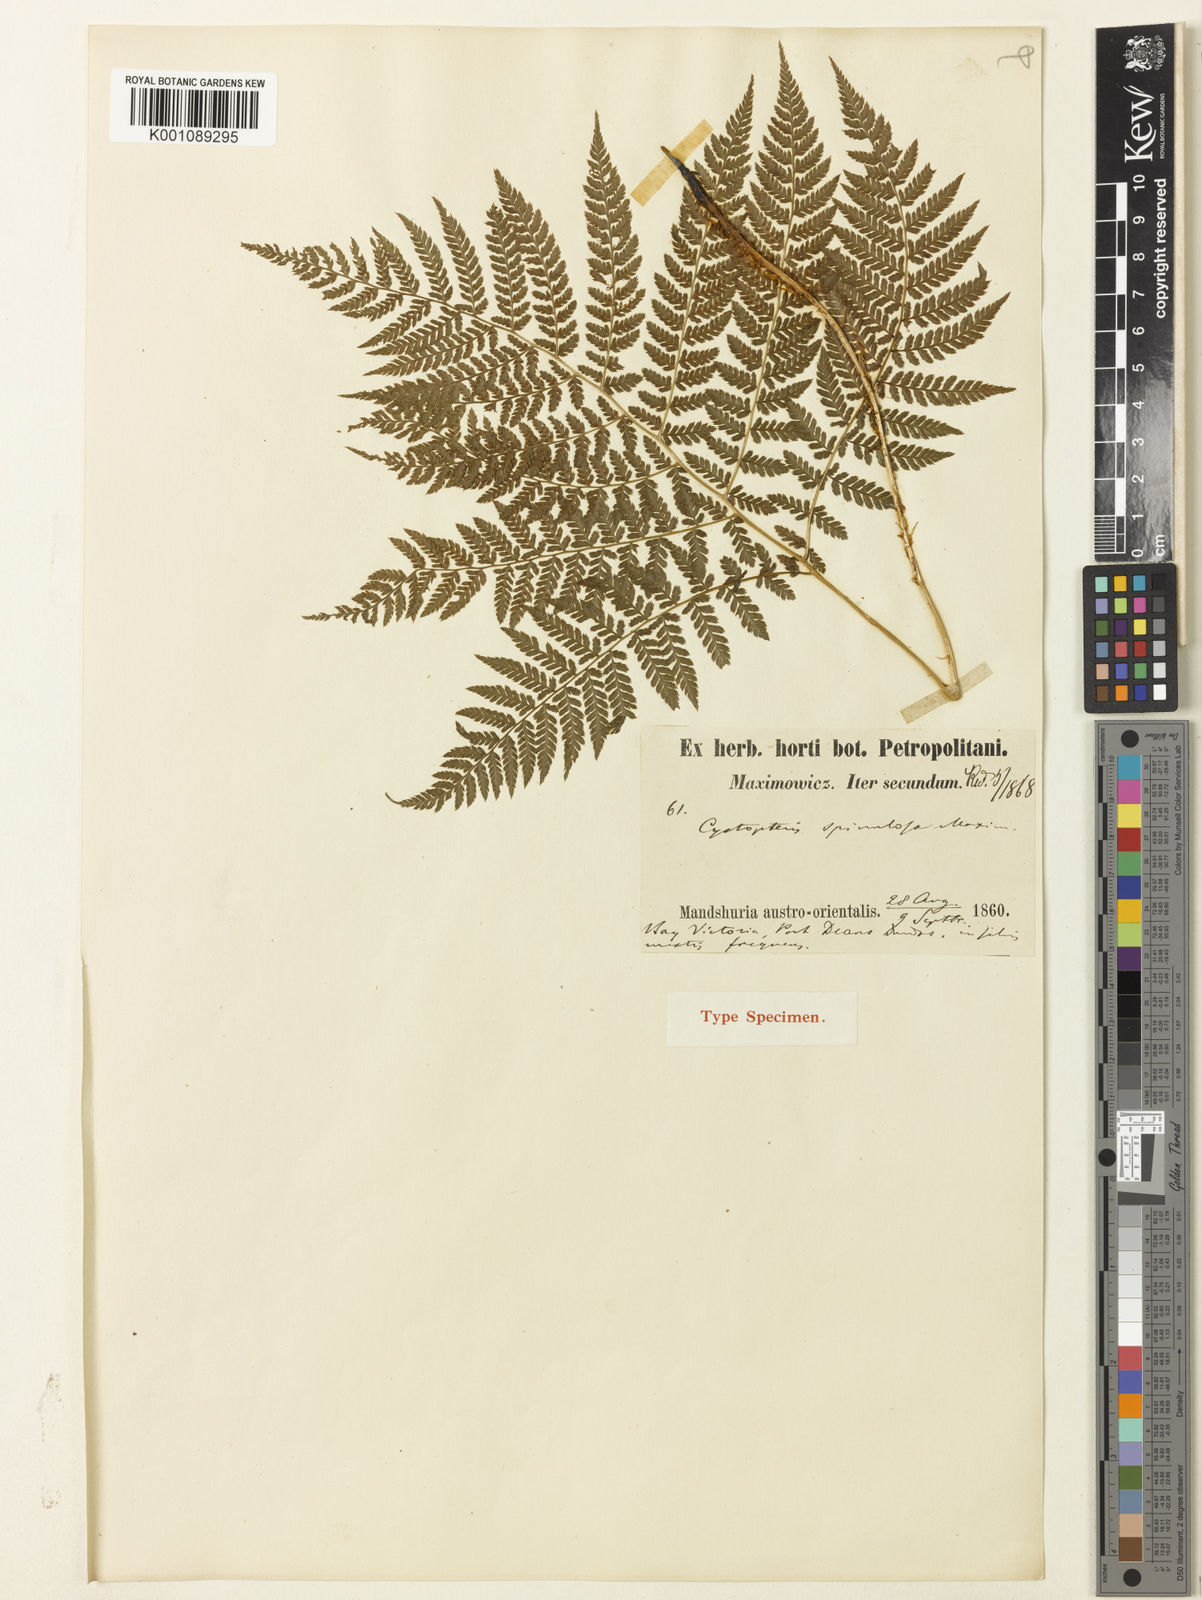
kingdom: Plantae
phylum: Tracheophyta
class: Polypodiopsida
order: Polypodiales
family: Athyriaceae
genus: Athyrium
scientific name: Athyrium spinulosum
